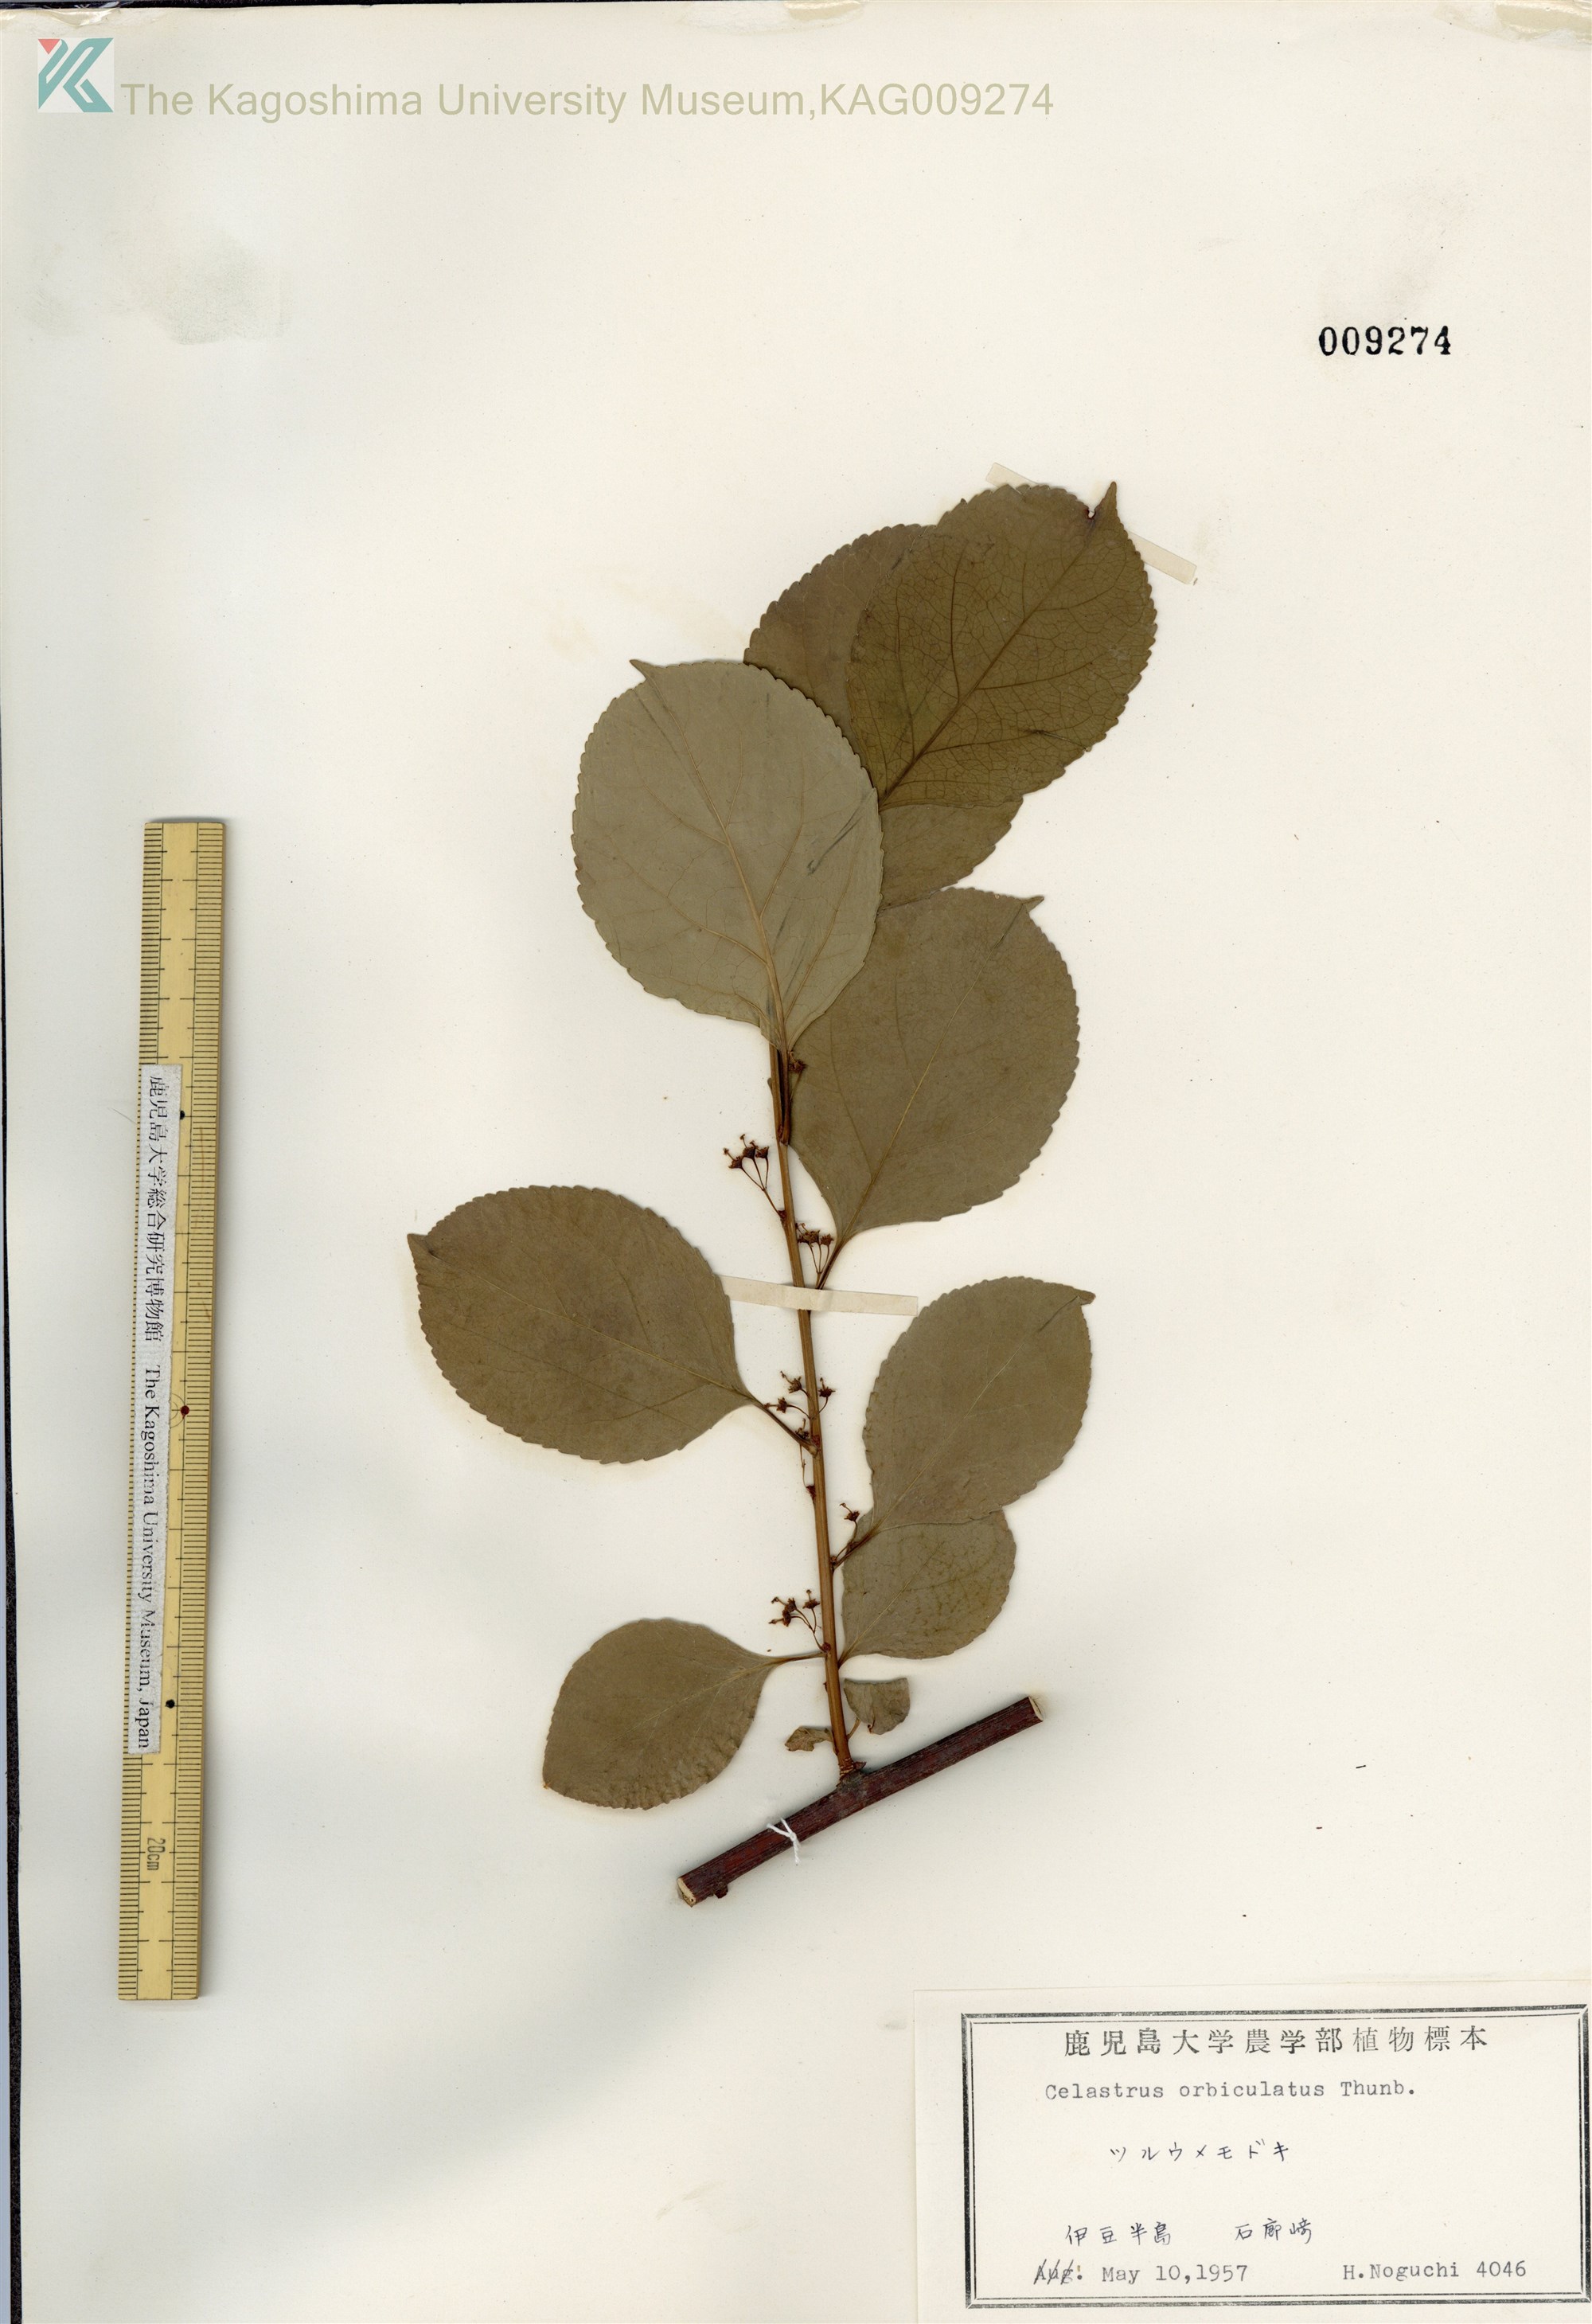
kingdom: Plantae
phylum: Tracheophyta
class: Magnoliopsida
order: Celastrales
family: Celastraceae
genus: Celastrus
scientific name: Celastrus orbiculatus
